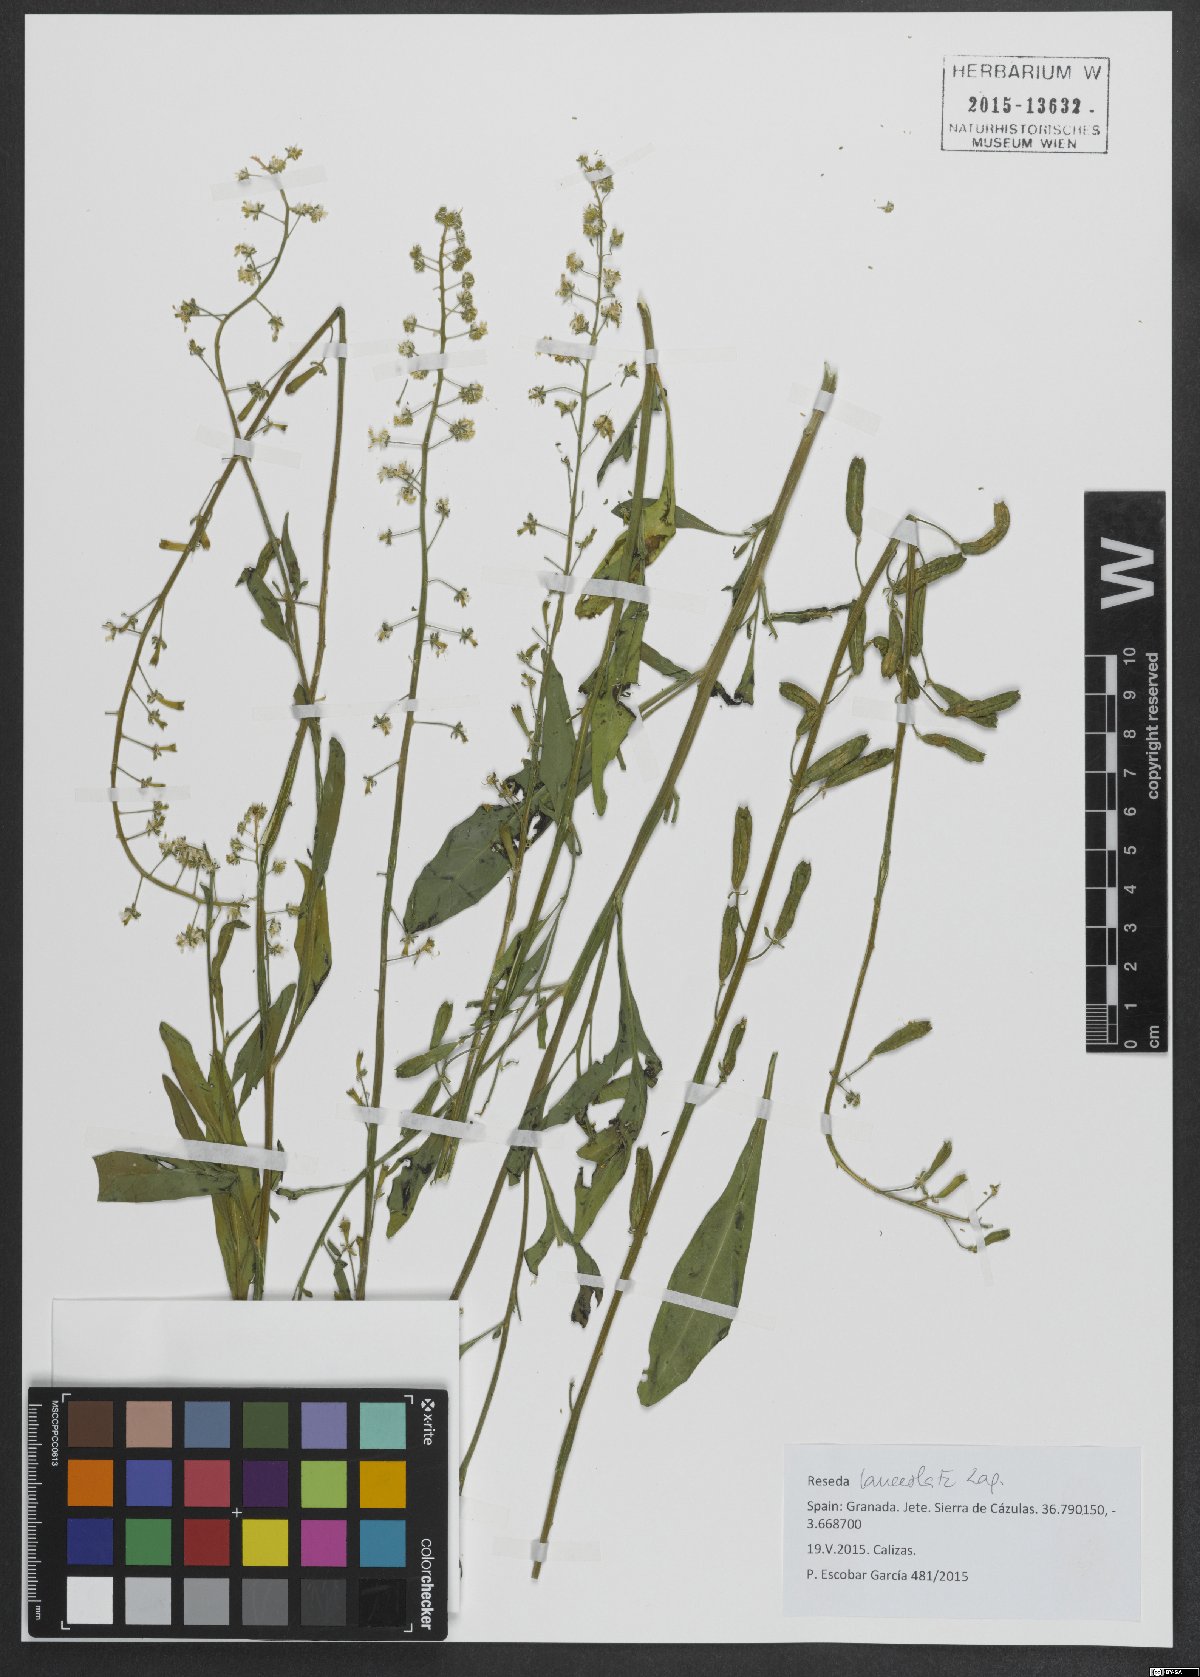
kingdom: Plantae
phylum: Tracheophyta
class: Magnoliopsida
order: Brassicales
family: Resedaceae
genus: Reseda
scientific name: Reseda lanceolata
